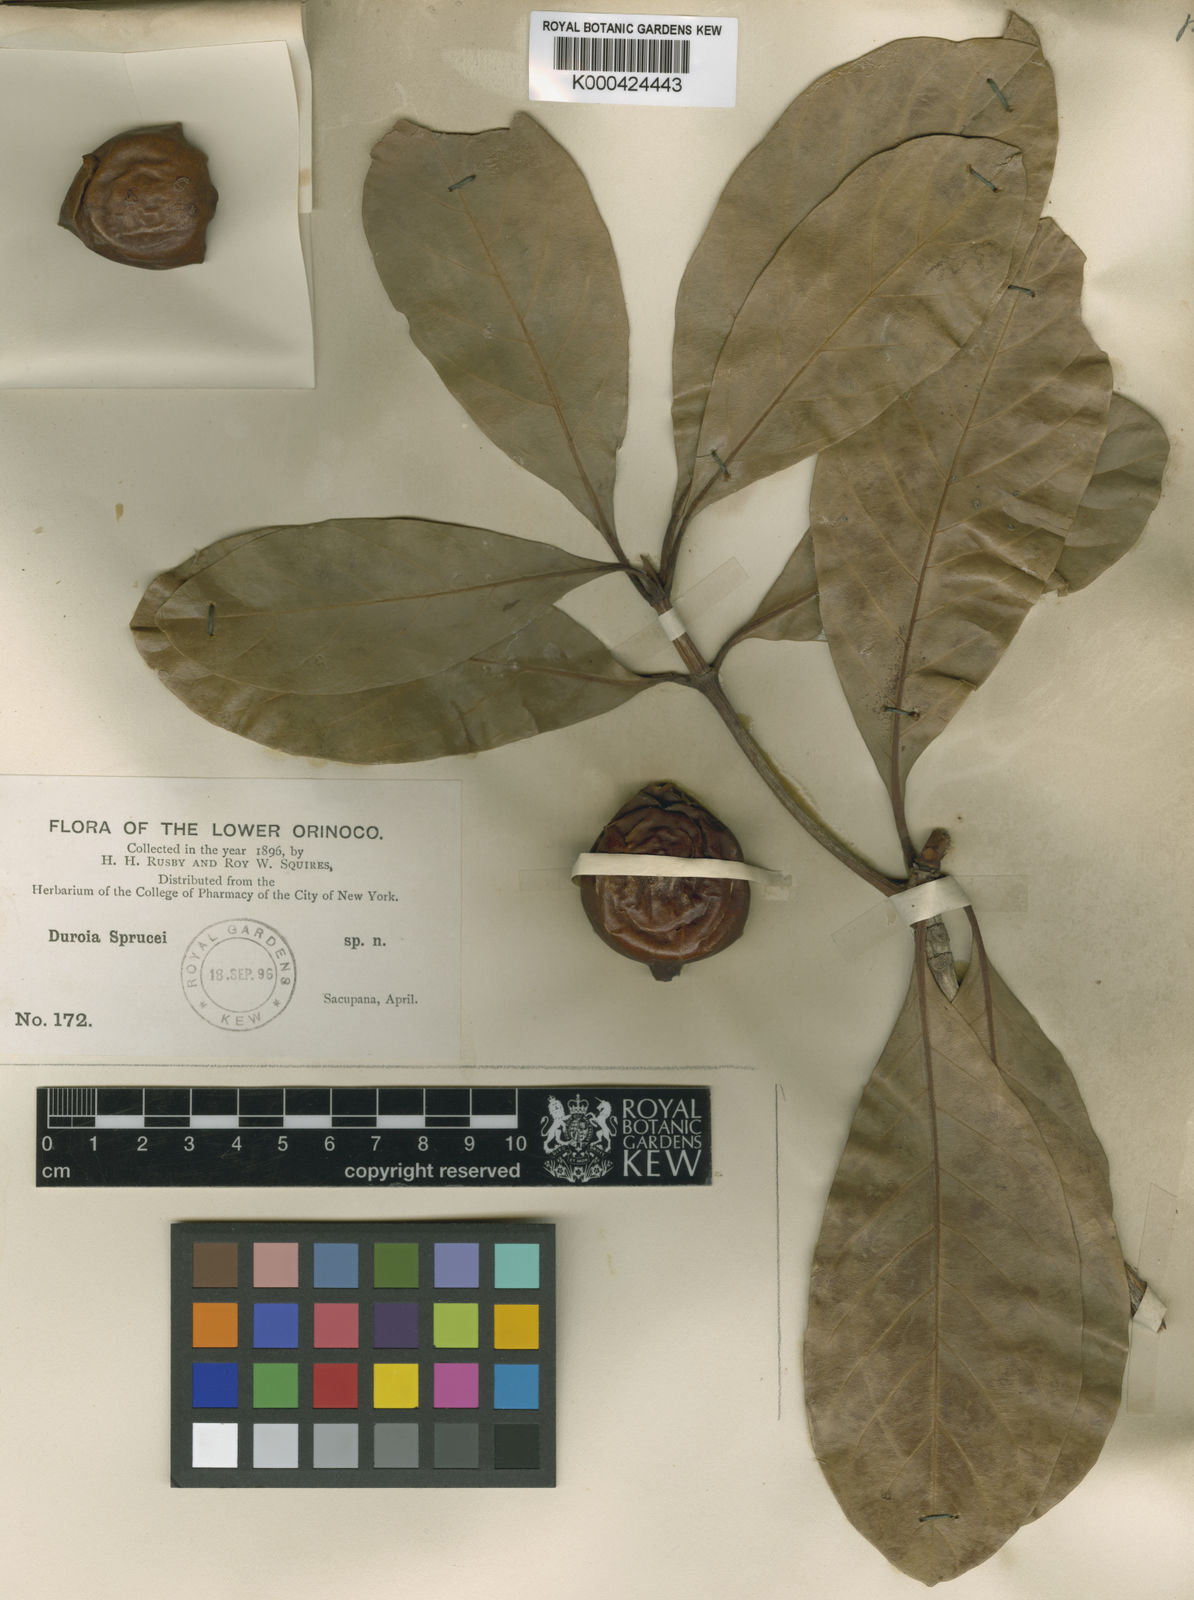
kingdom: Plantae
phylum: Tracheophyta
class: Magnoliopsida
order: Gentianales
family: Rubiaceae
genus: Duroia
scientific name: Duroia genipoides
